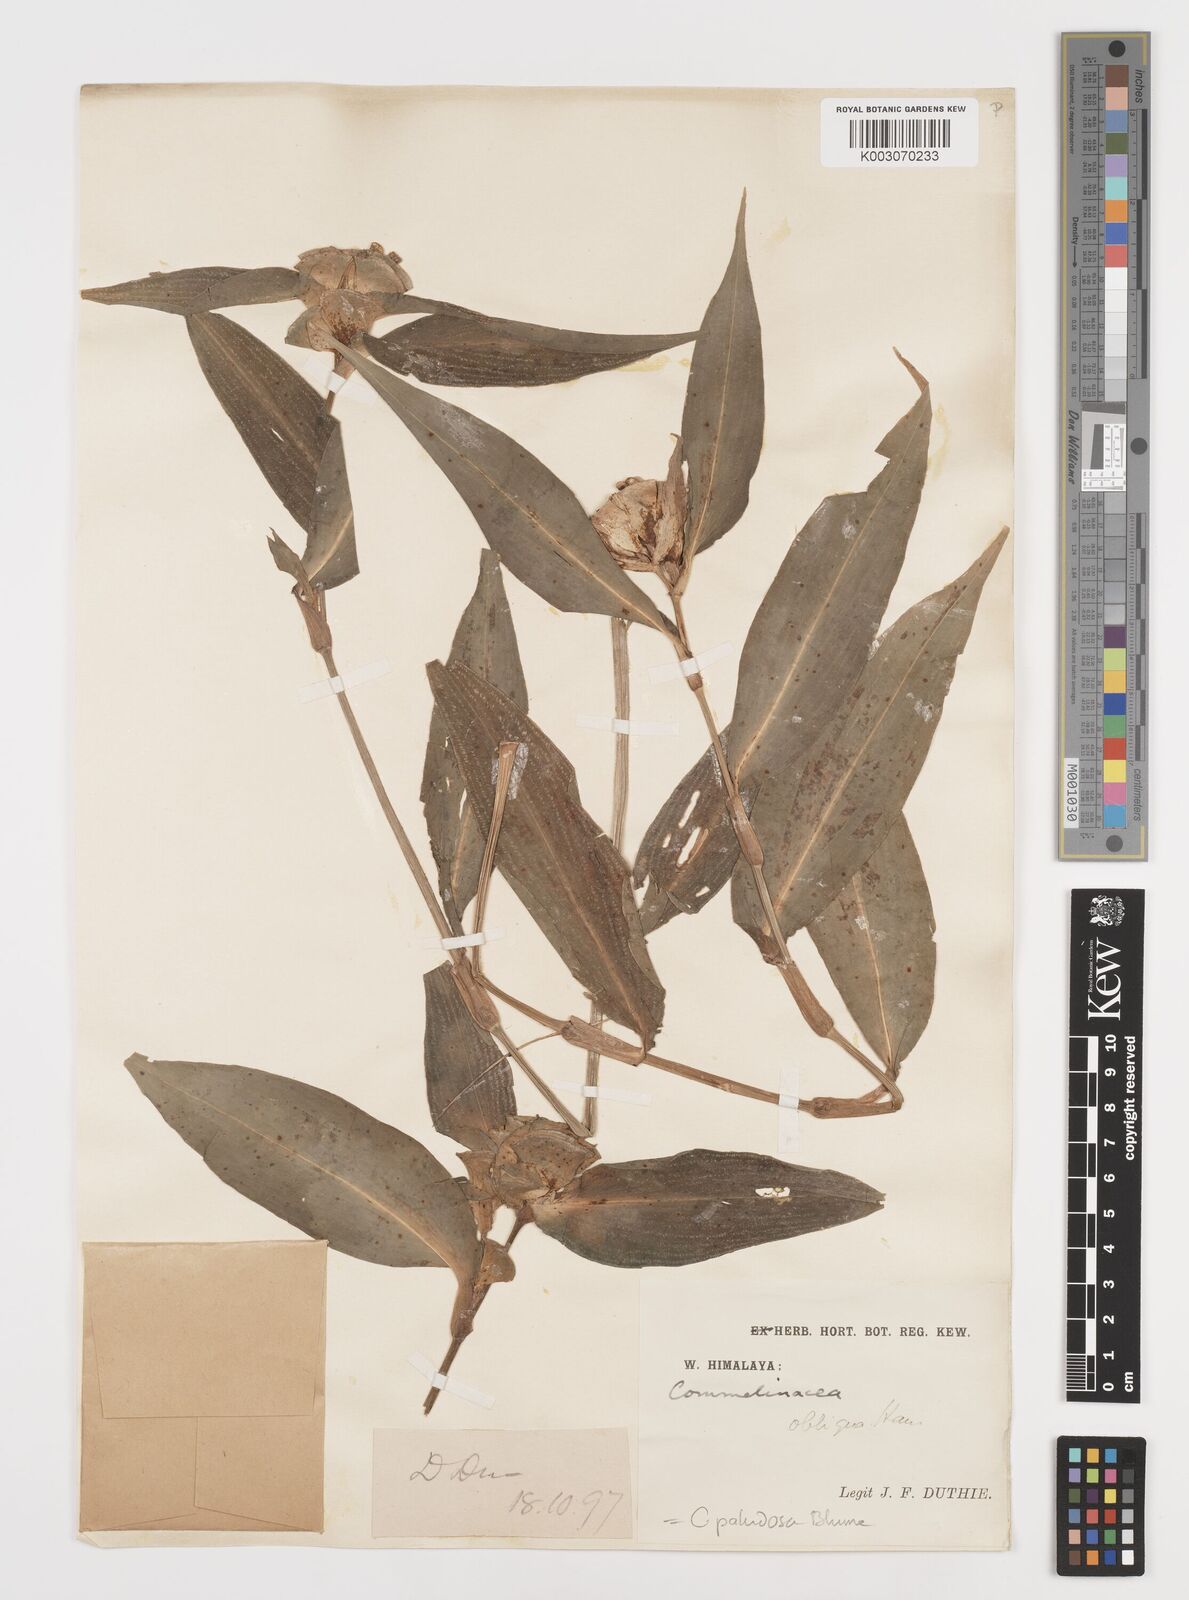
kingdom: Plantae
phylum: Tracheophyta
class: Liliopsida
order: Commelinales
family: Commelinaceae
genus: Commelina
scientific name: Commelina paludosa
